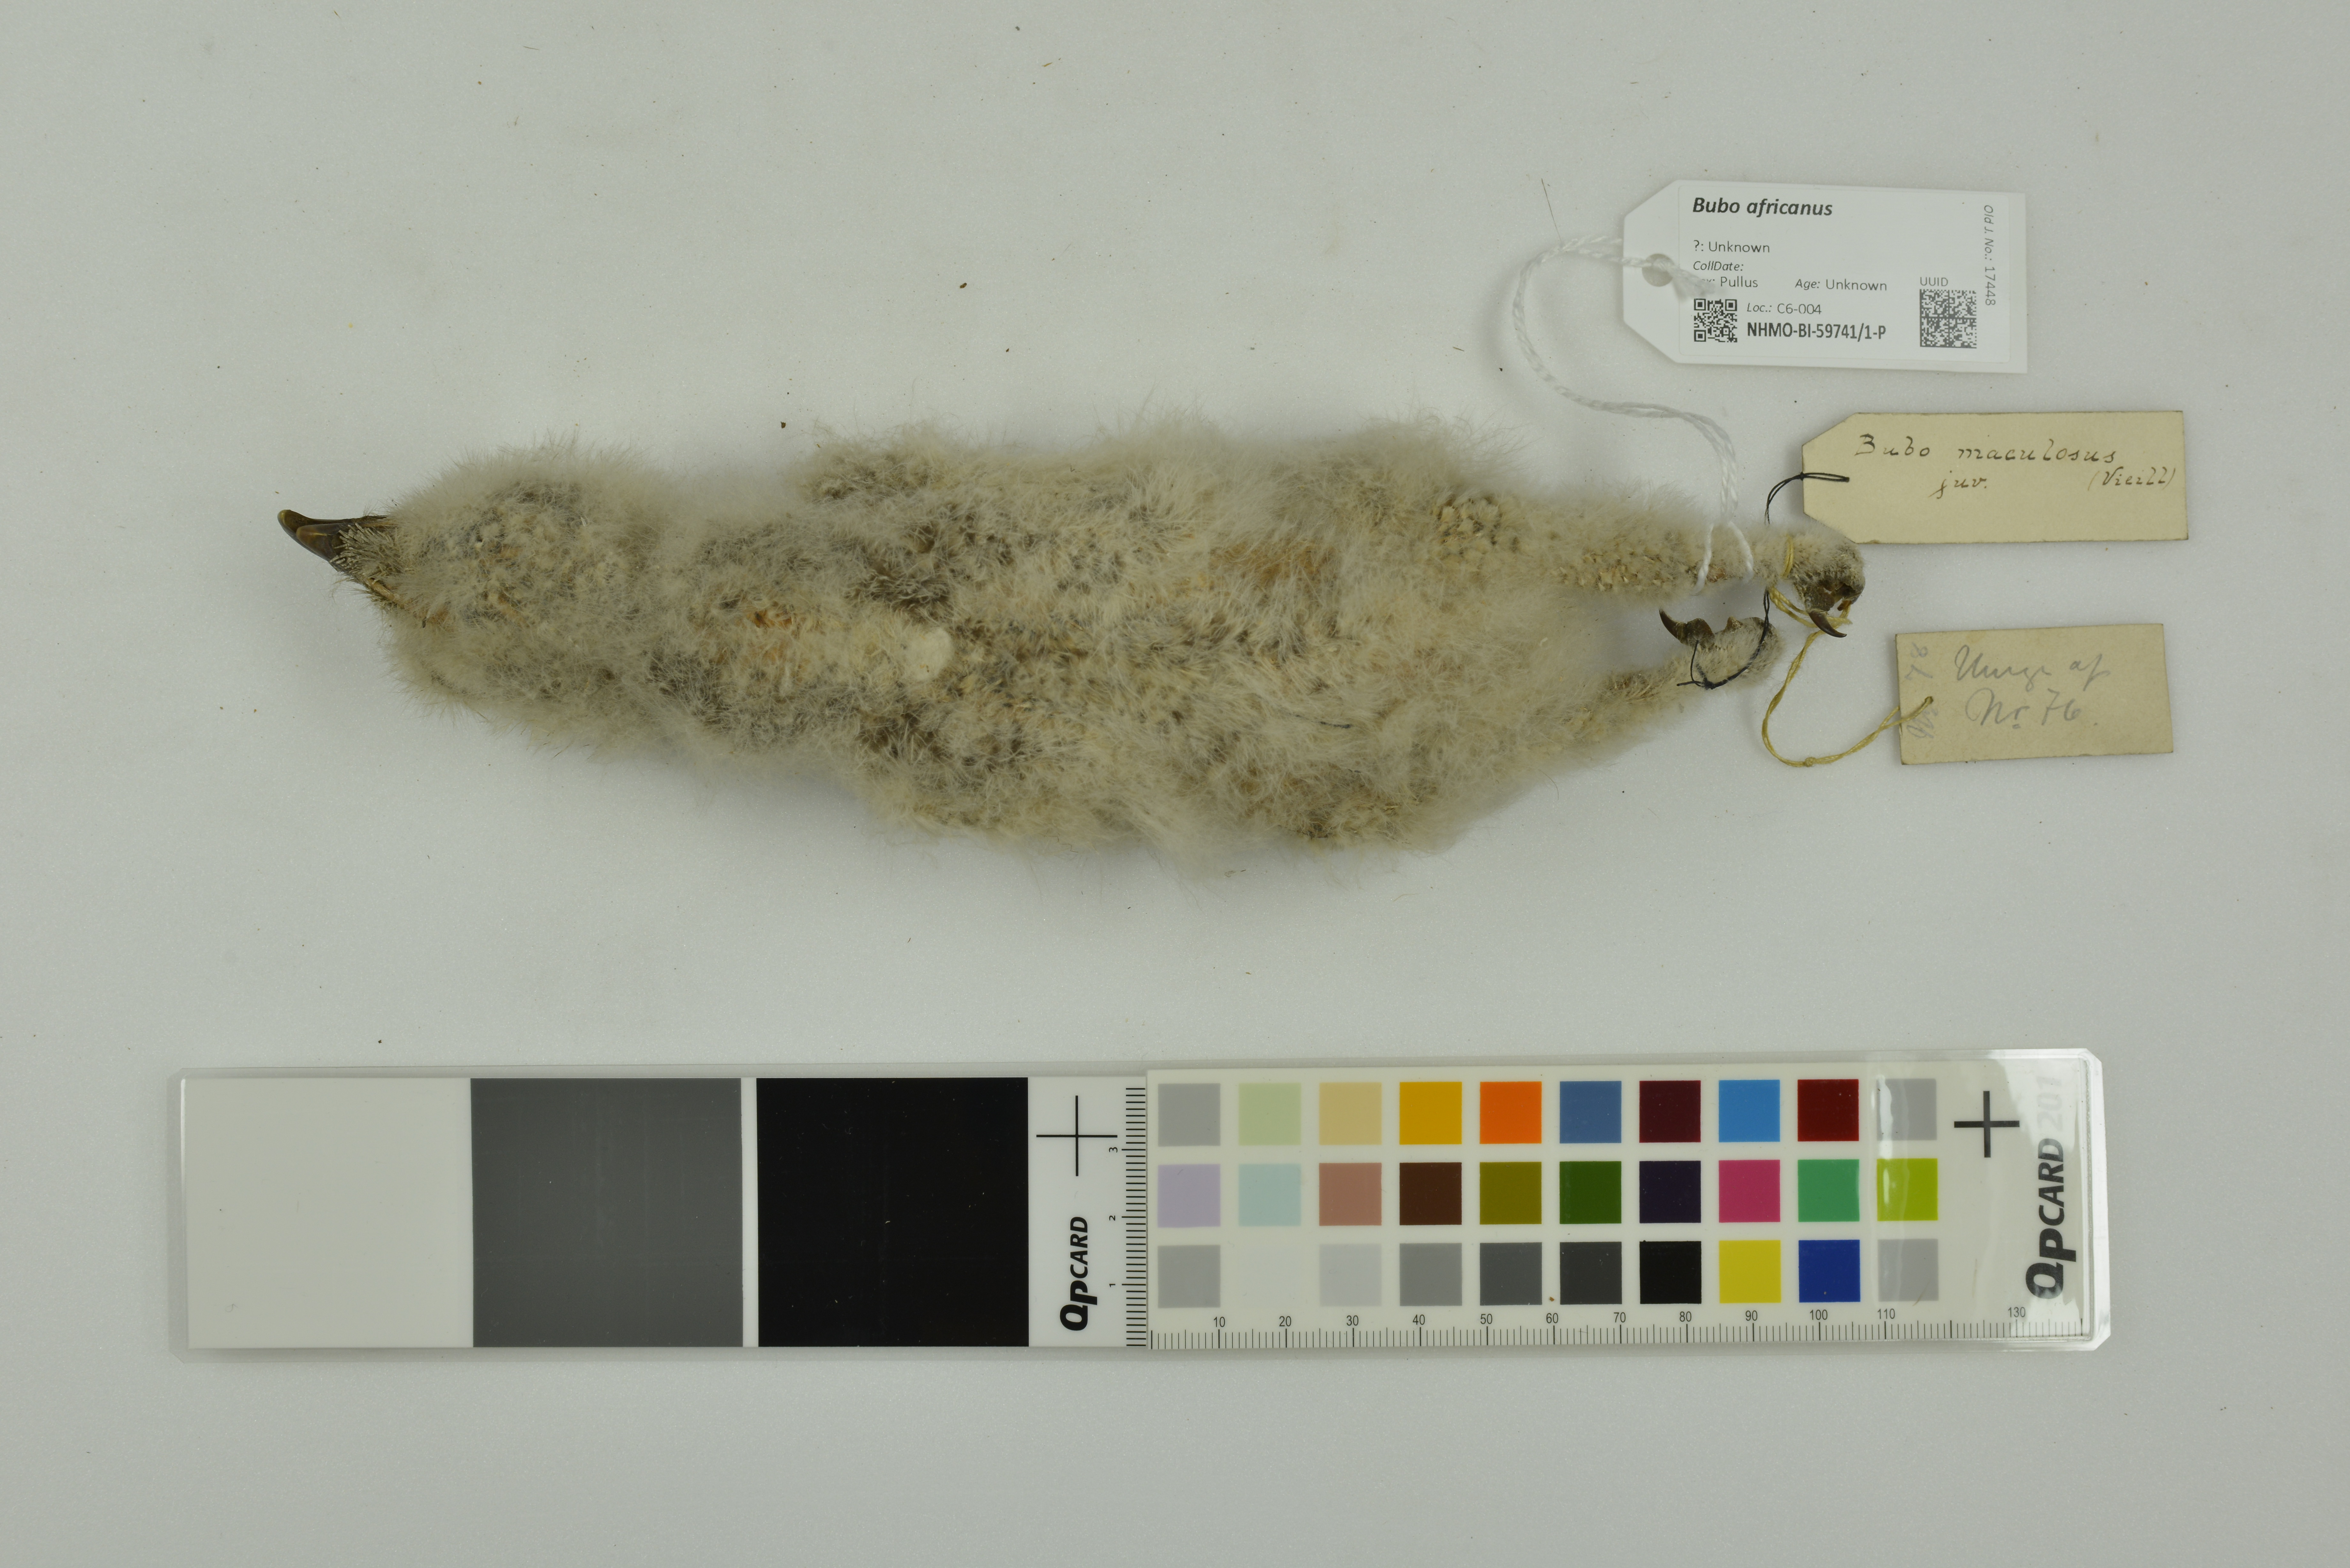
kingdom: Animalia
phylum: Chordata
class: Aves
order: Strigiformes
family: Strigidae
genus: Bubo
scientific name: Bubo africanus
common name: Spotted eagle-owl
